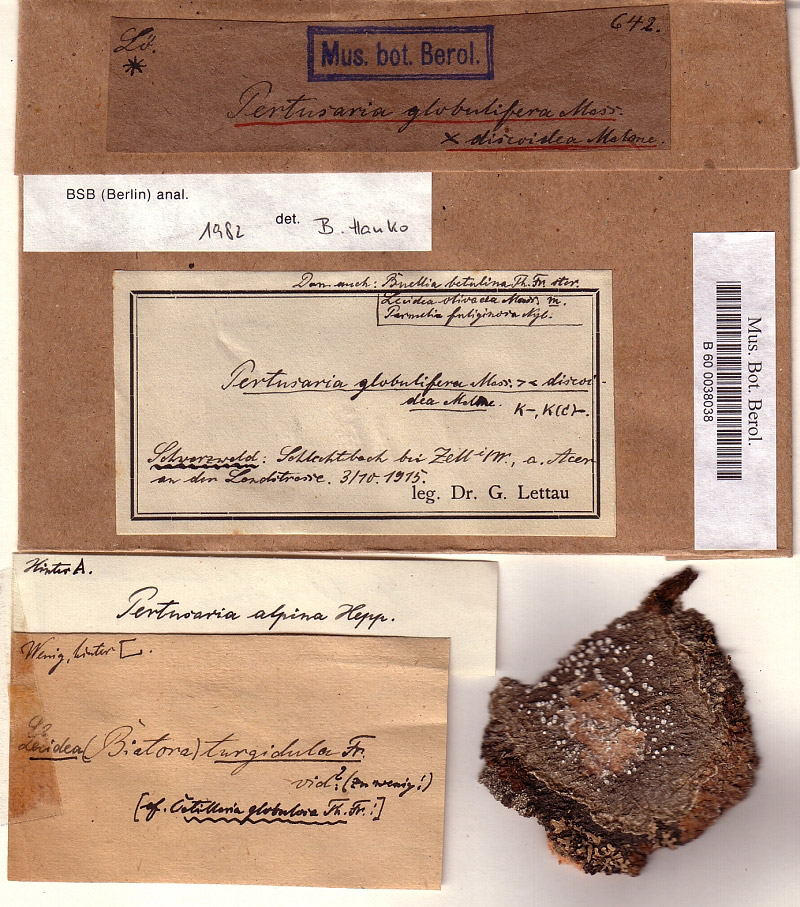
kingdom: Fungi
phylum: Ascomycota
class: Lecanoromycetes
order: Pertusariales
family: Pertusariaceae
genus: Pertusaria
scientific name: Pertusaria alpina
